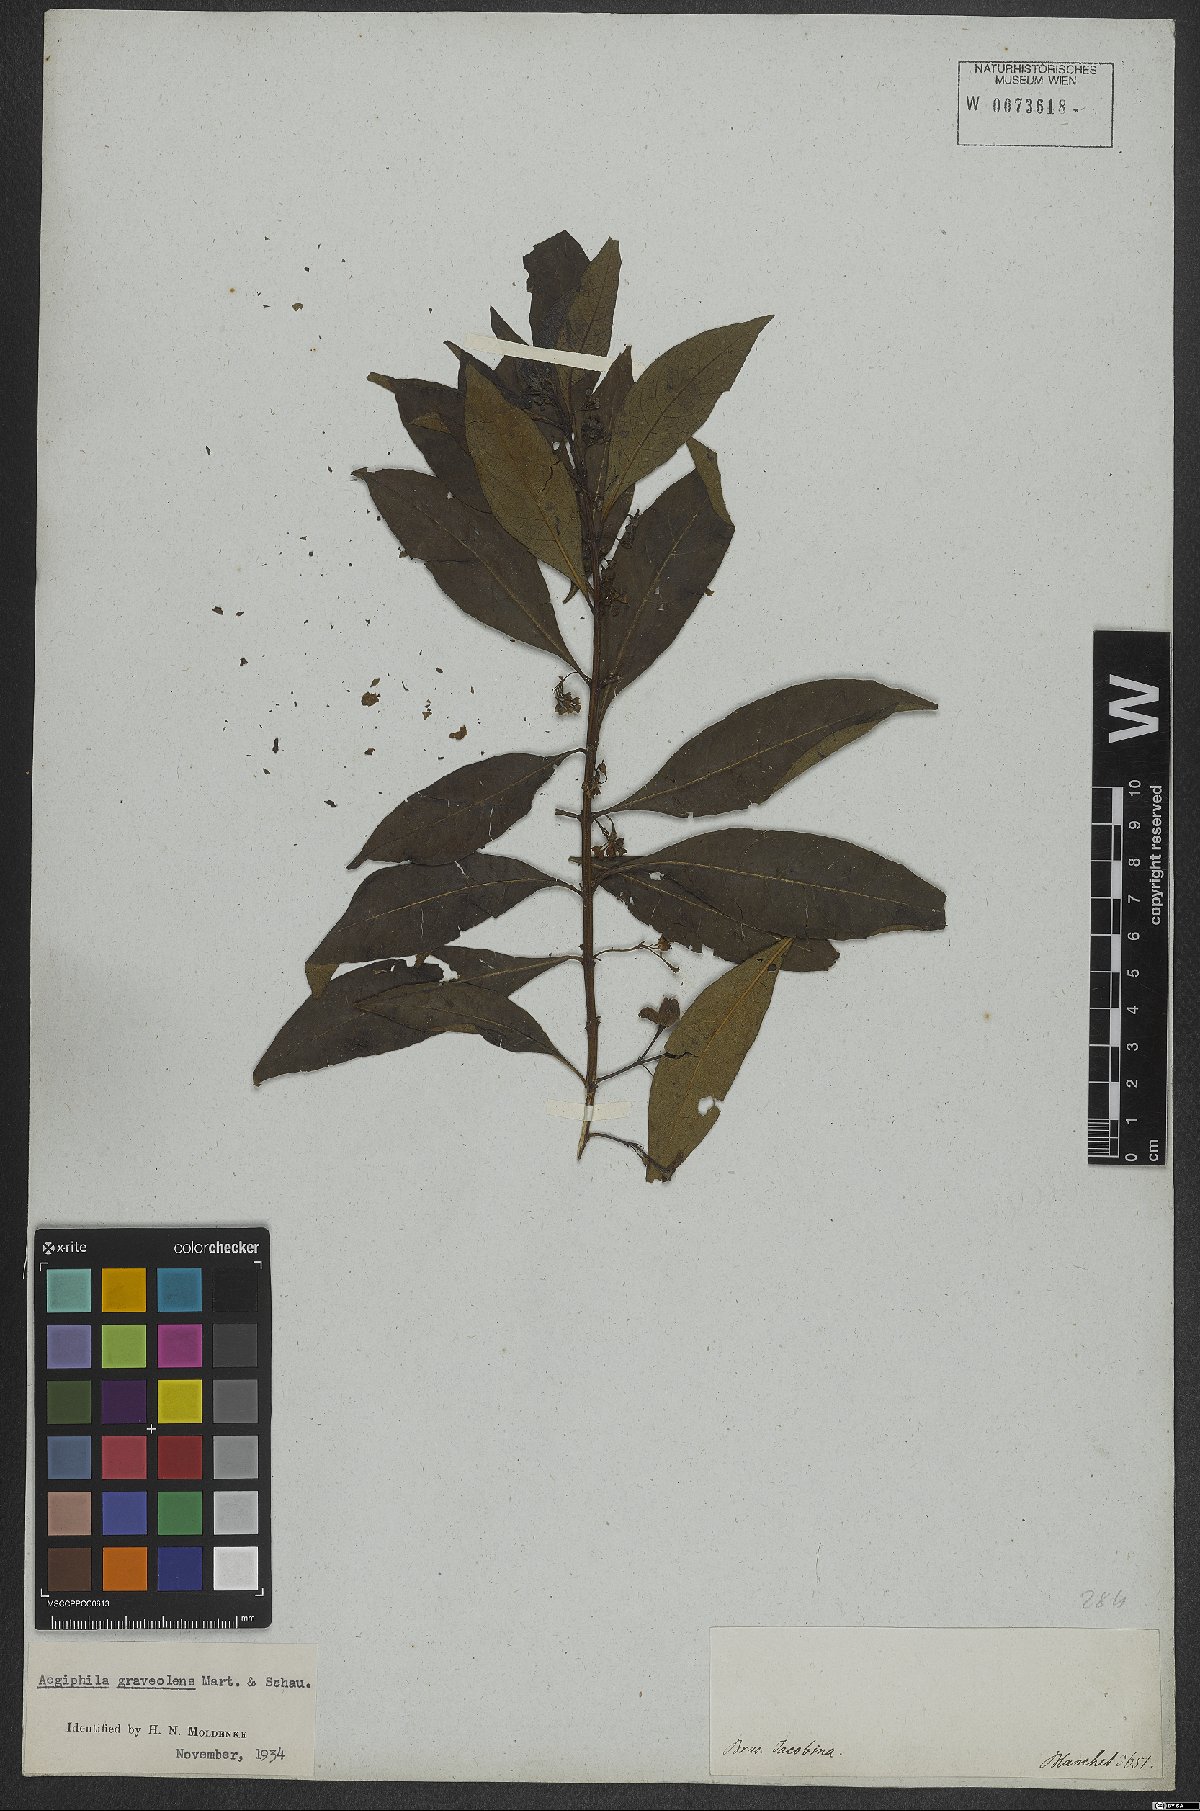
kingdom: Plantae
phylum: Tracheophyta
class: Magnoliopsida
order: Lamiales
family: Lamiaceae
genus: Aegiphila
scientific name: Aegiphila graveolens
